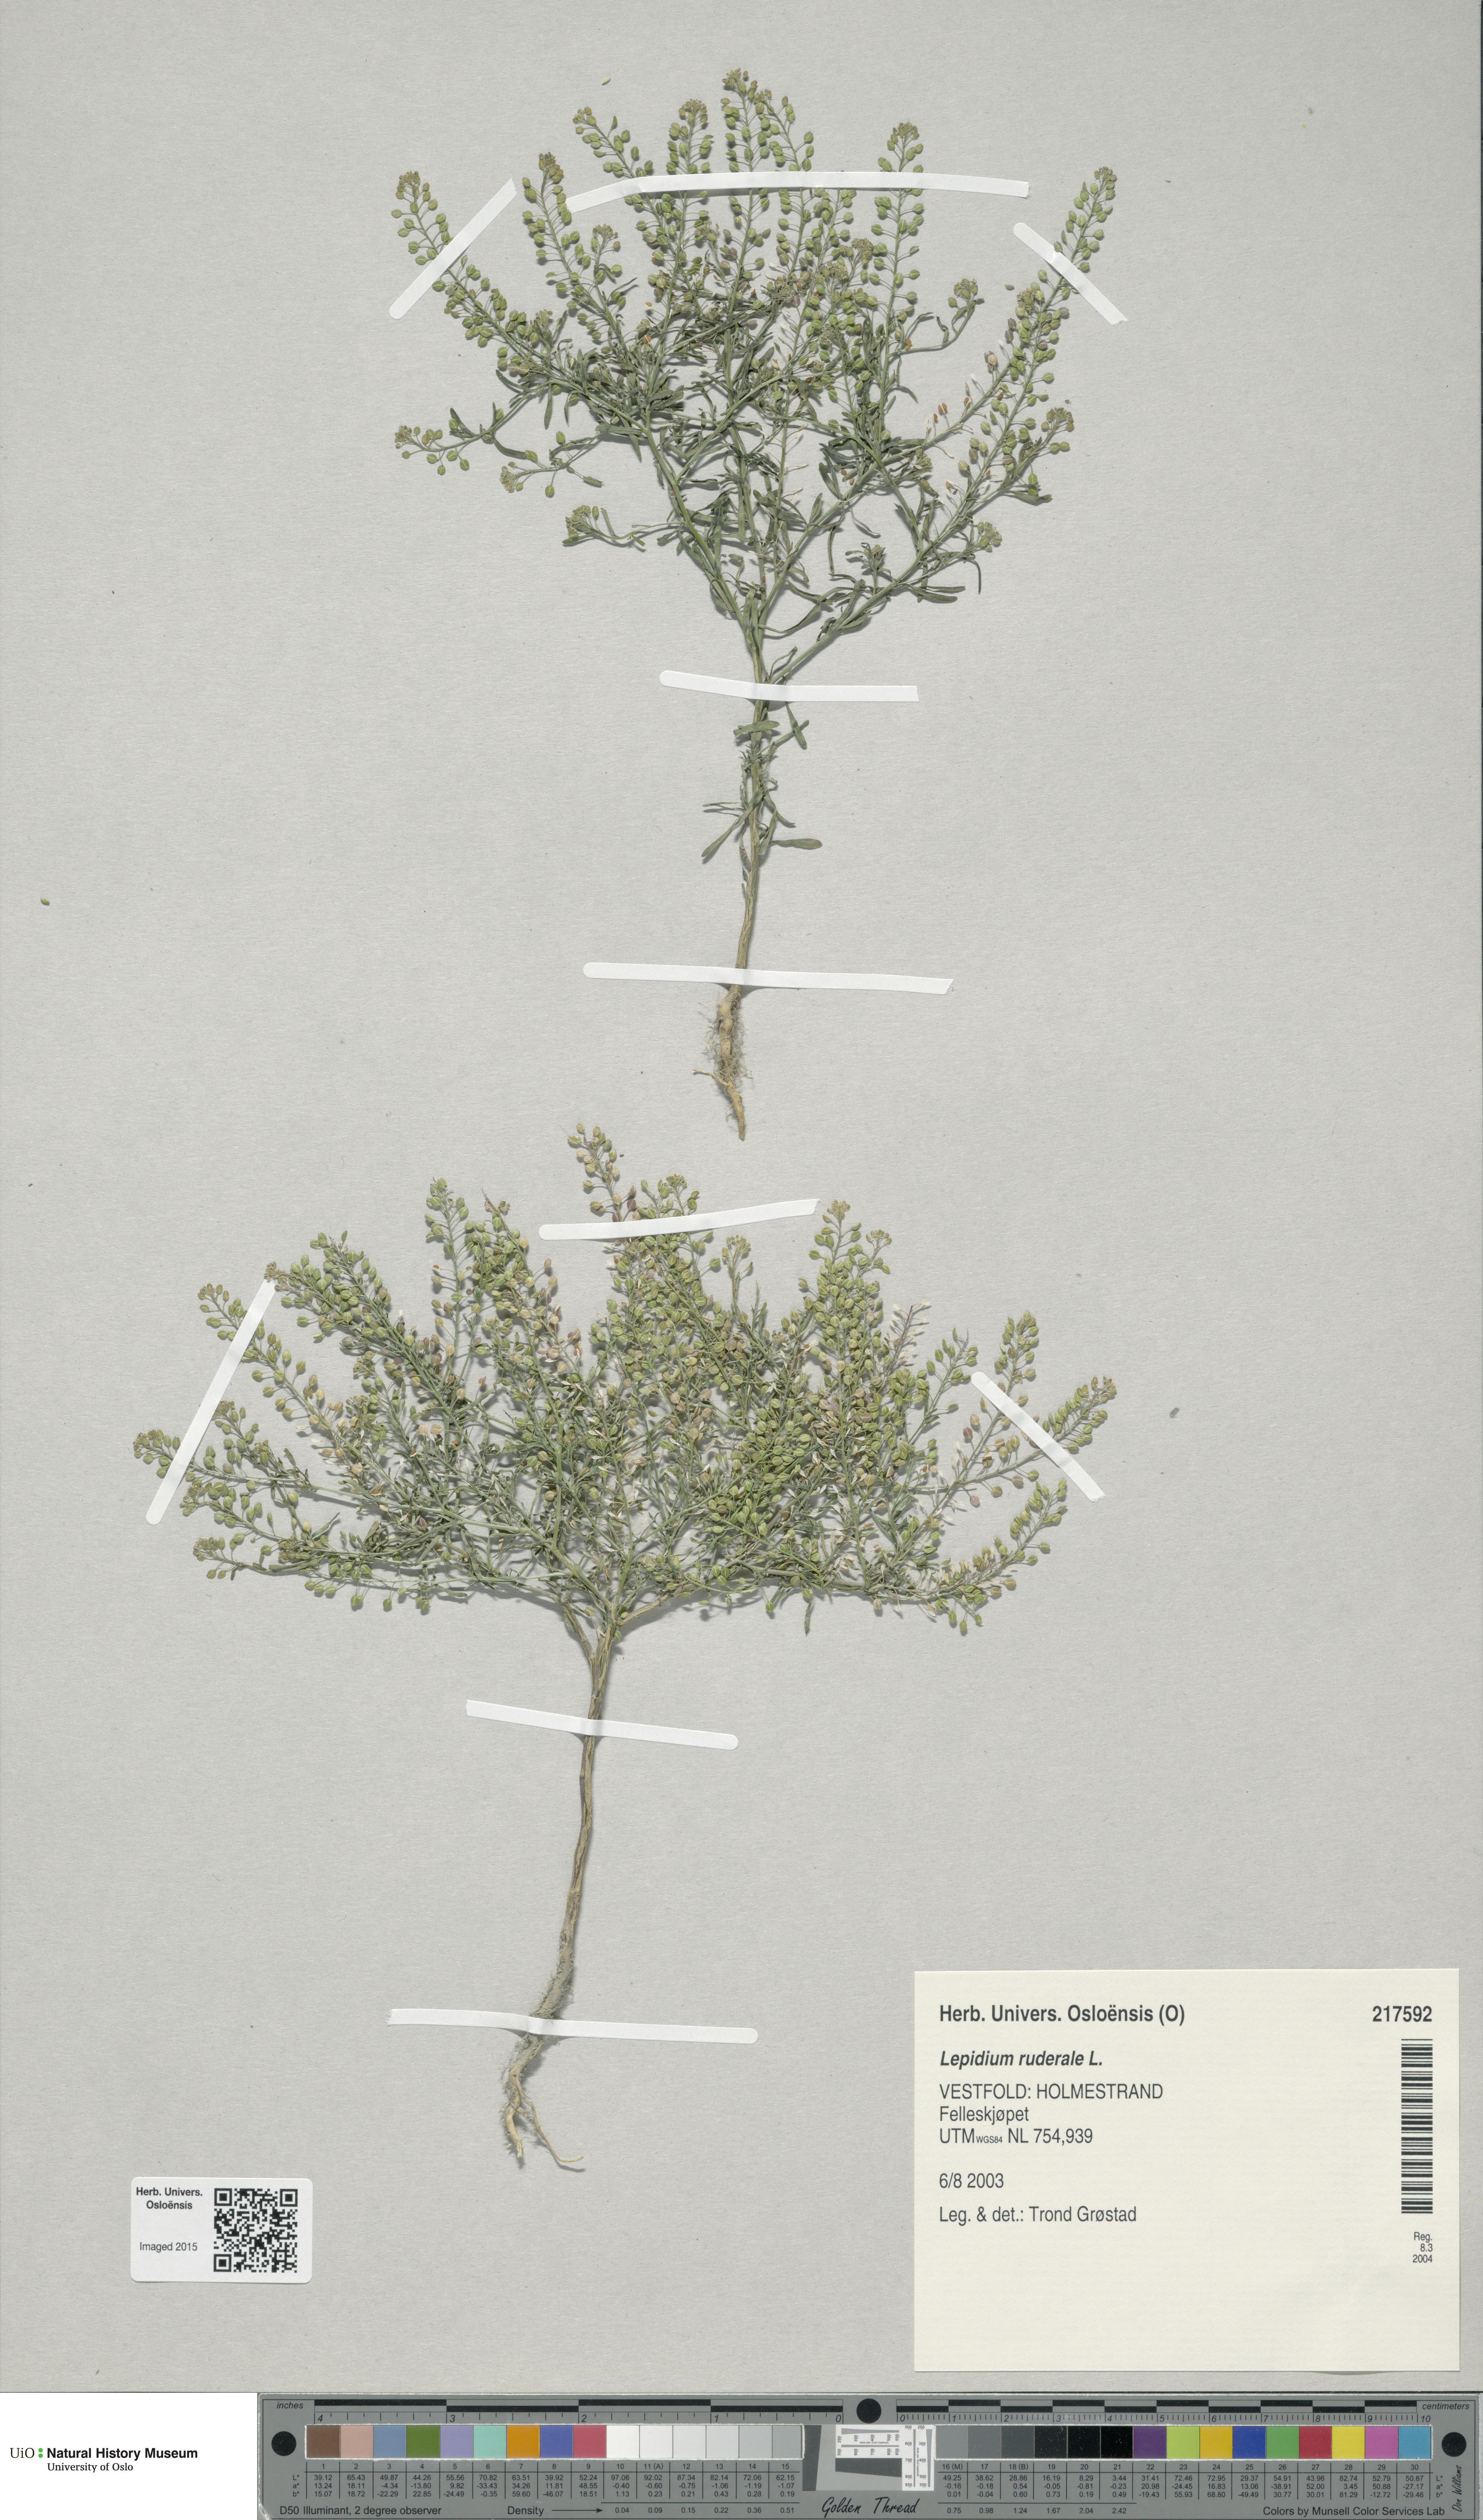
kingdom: Plantae
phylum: Tracheophyta
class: Magnoliopsida
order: Brassicales
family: Brassicaceae
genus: Lepidium
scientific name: Lepidium ruderale
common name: Narrow-leaved pepperwort
